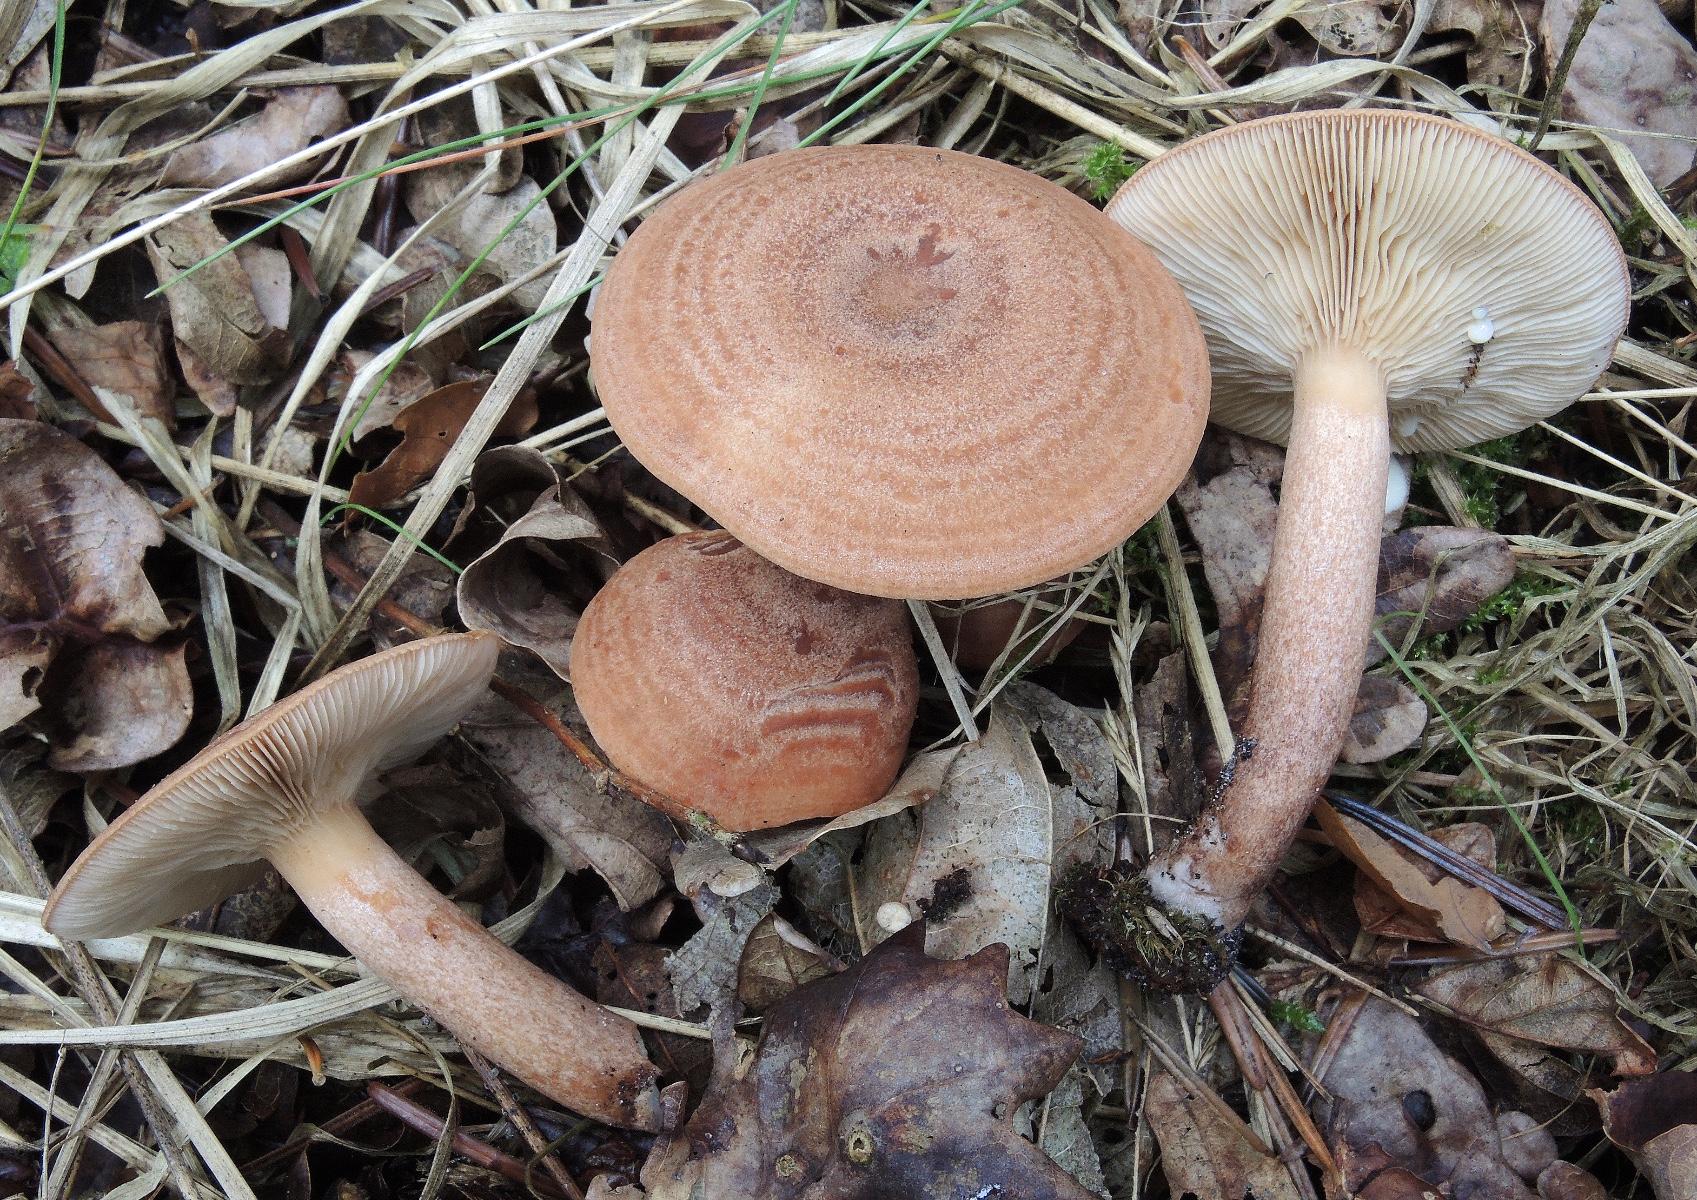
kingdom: Fungi
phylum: Basidiomycota
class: Agaricomycetes
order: Russulales
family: Russulaceae
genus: Lactarius
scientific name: Lactarius quietus
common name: ege-mælkehat
